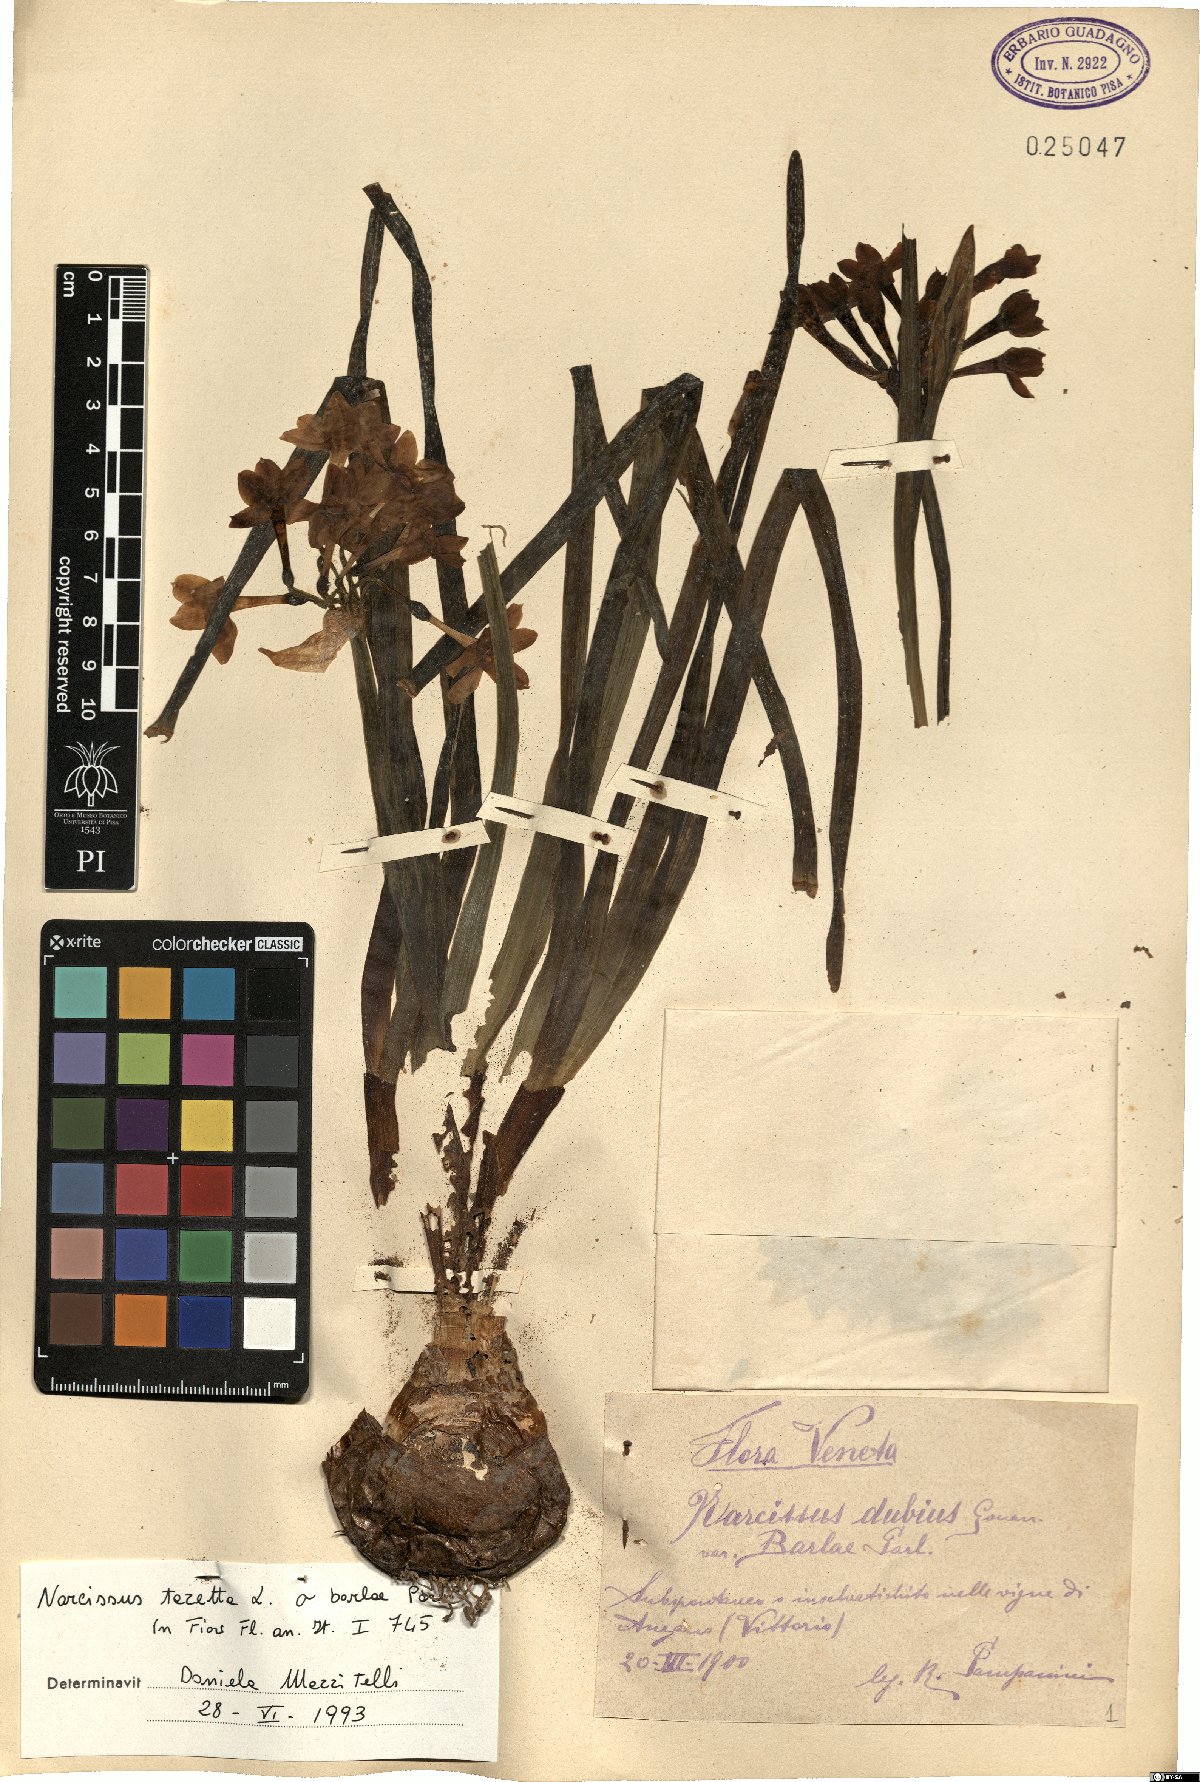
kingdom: Plantae
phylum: Tracheophyta
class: Liliopsida
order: Asparagales
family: Amaryllidaceae
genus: Narcissus
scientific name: Narcissus tazetta
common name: Bunch-flowered daffodil
